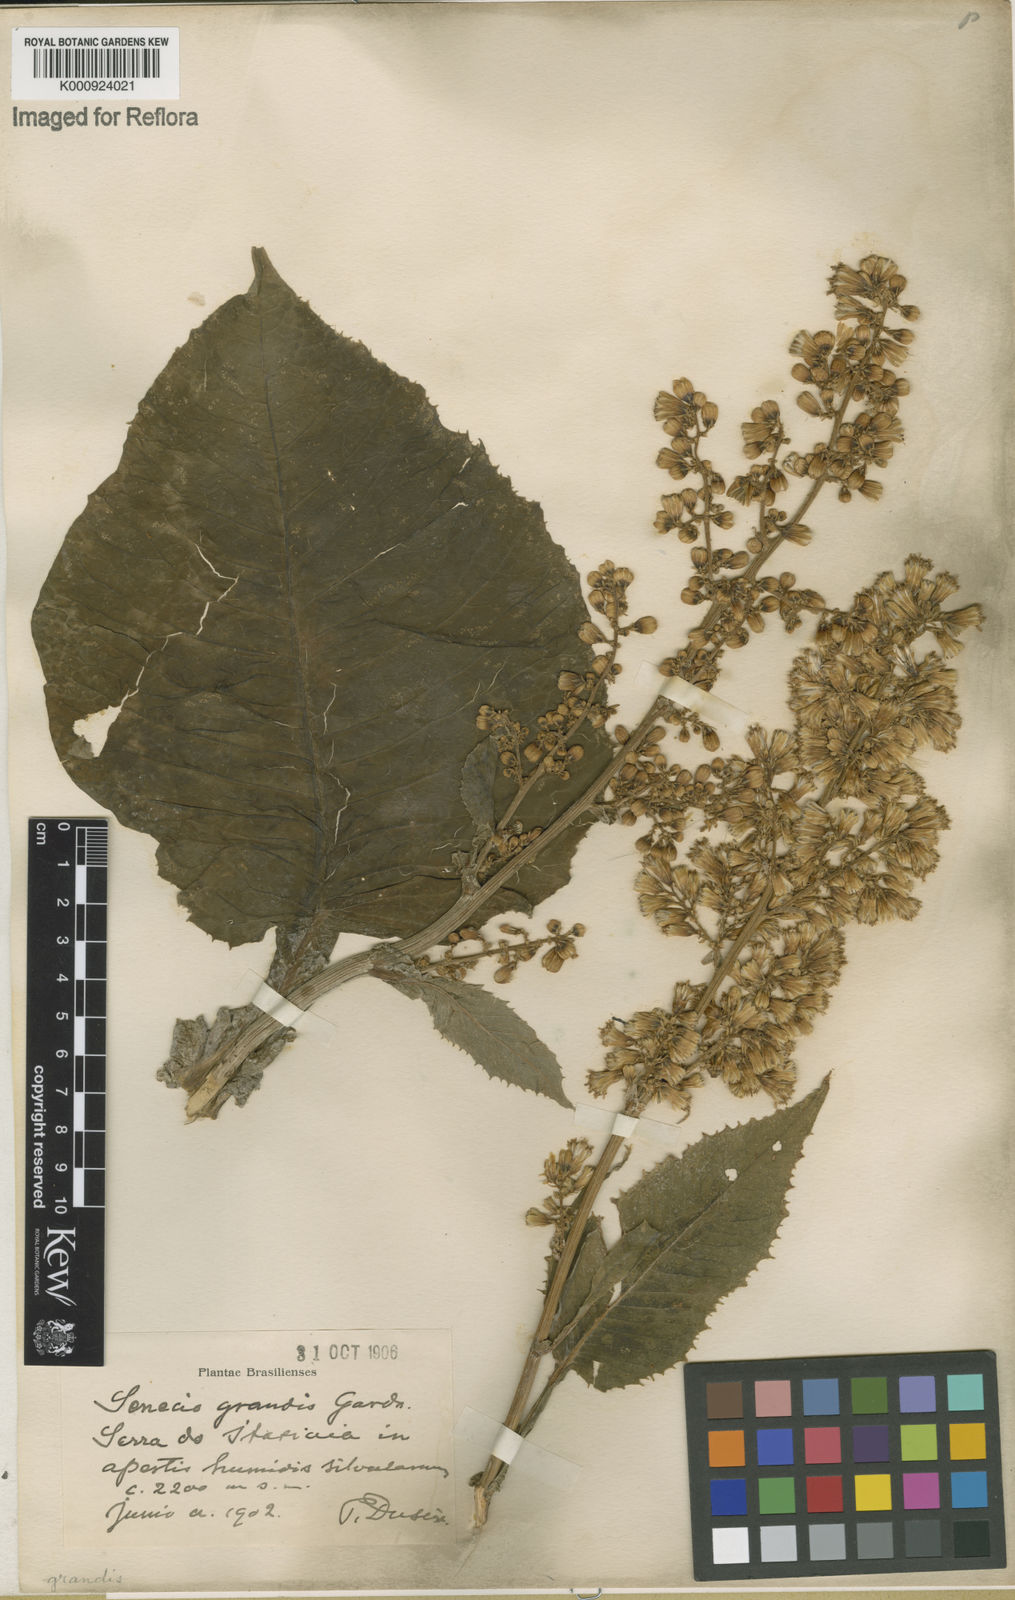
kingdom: Plantae
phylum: Tracheophyta
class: Magnoliopsida
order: Asterales
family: Asteraceae
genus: Senecio
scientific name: Senecio grandis
